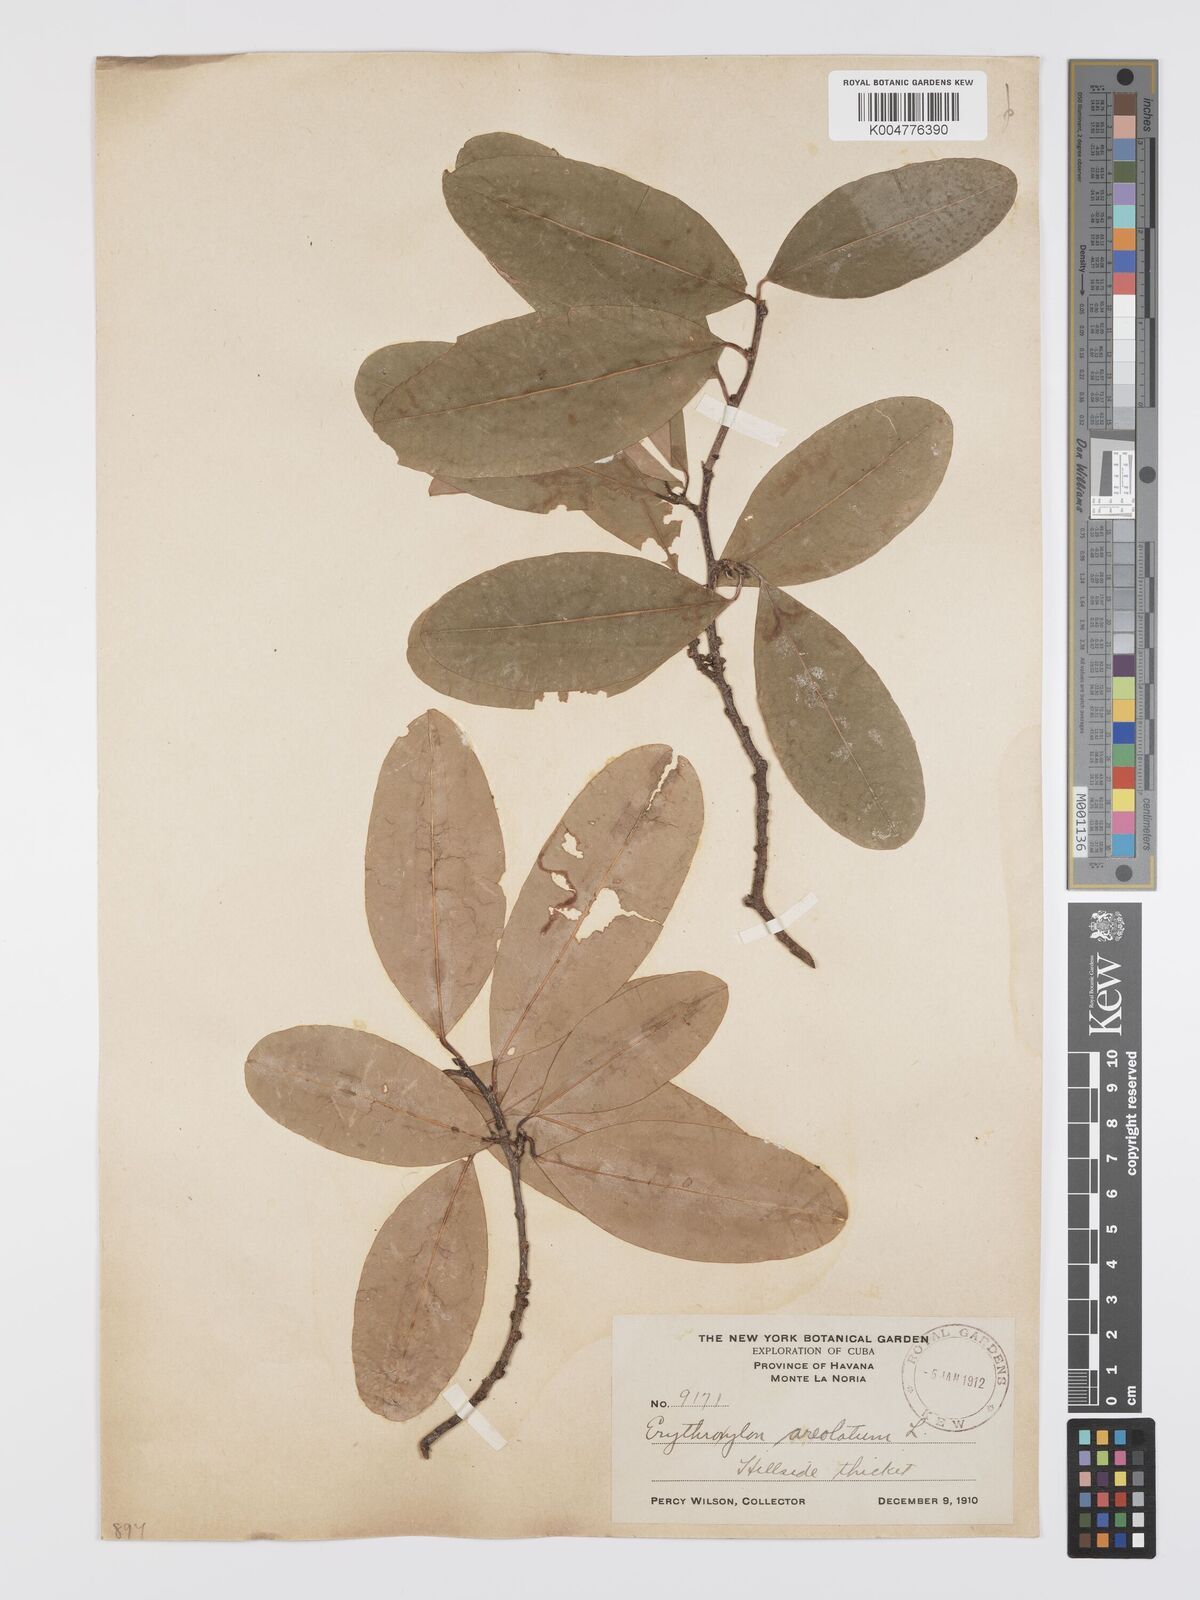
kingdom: Plantae
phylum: Tracheophyta
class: Magnoliopsida
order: Malpighiales
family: Erythroxylaceae
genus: Erythroxylum
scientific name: Erythroxylum areolatum
